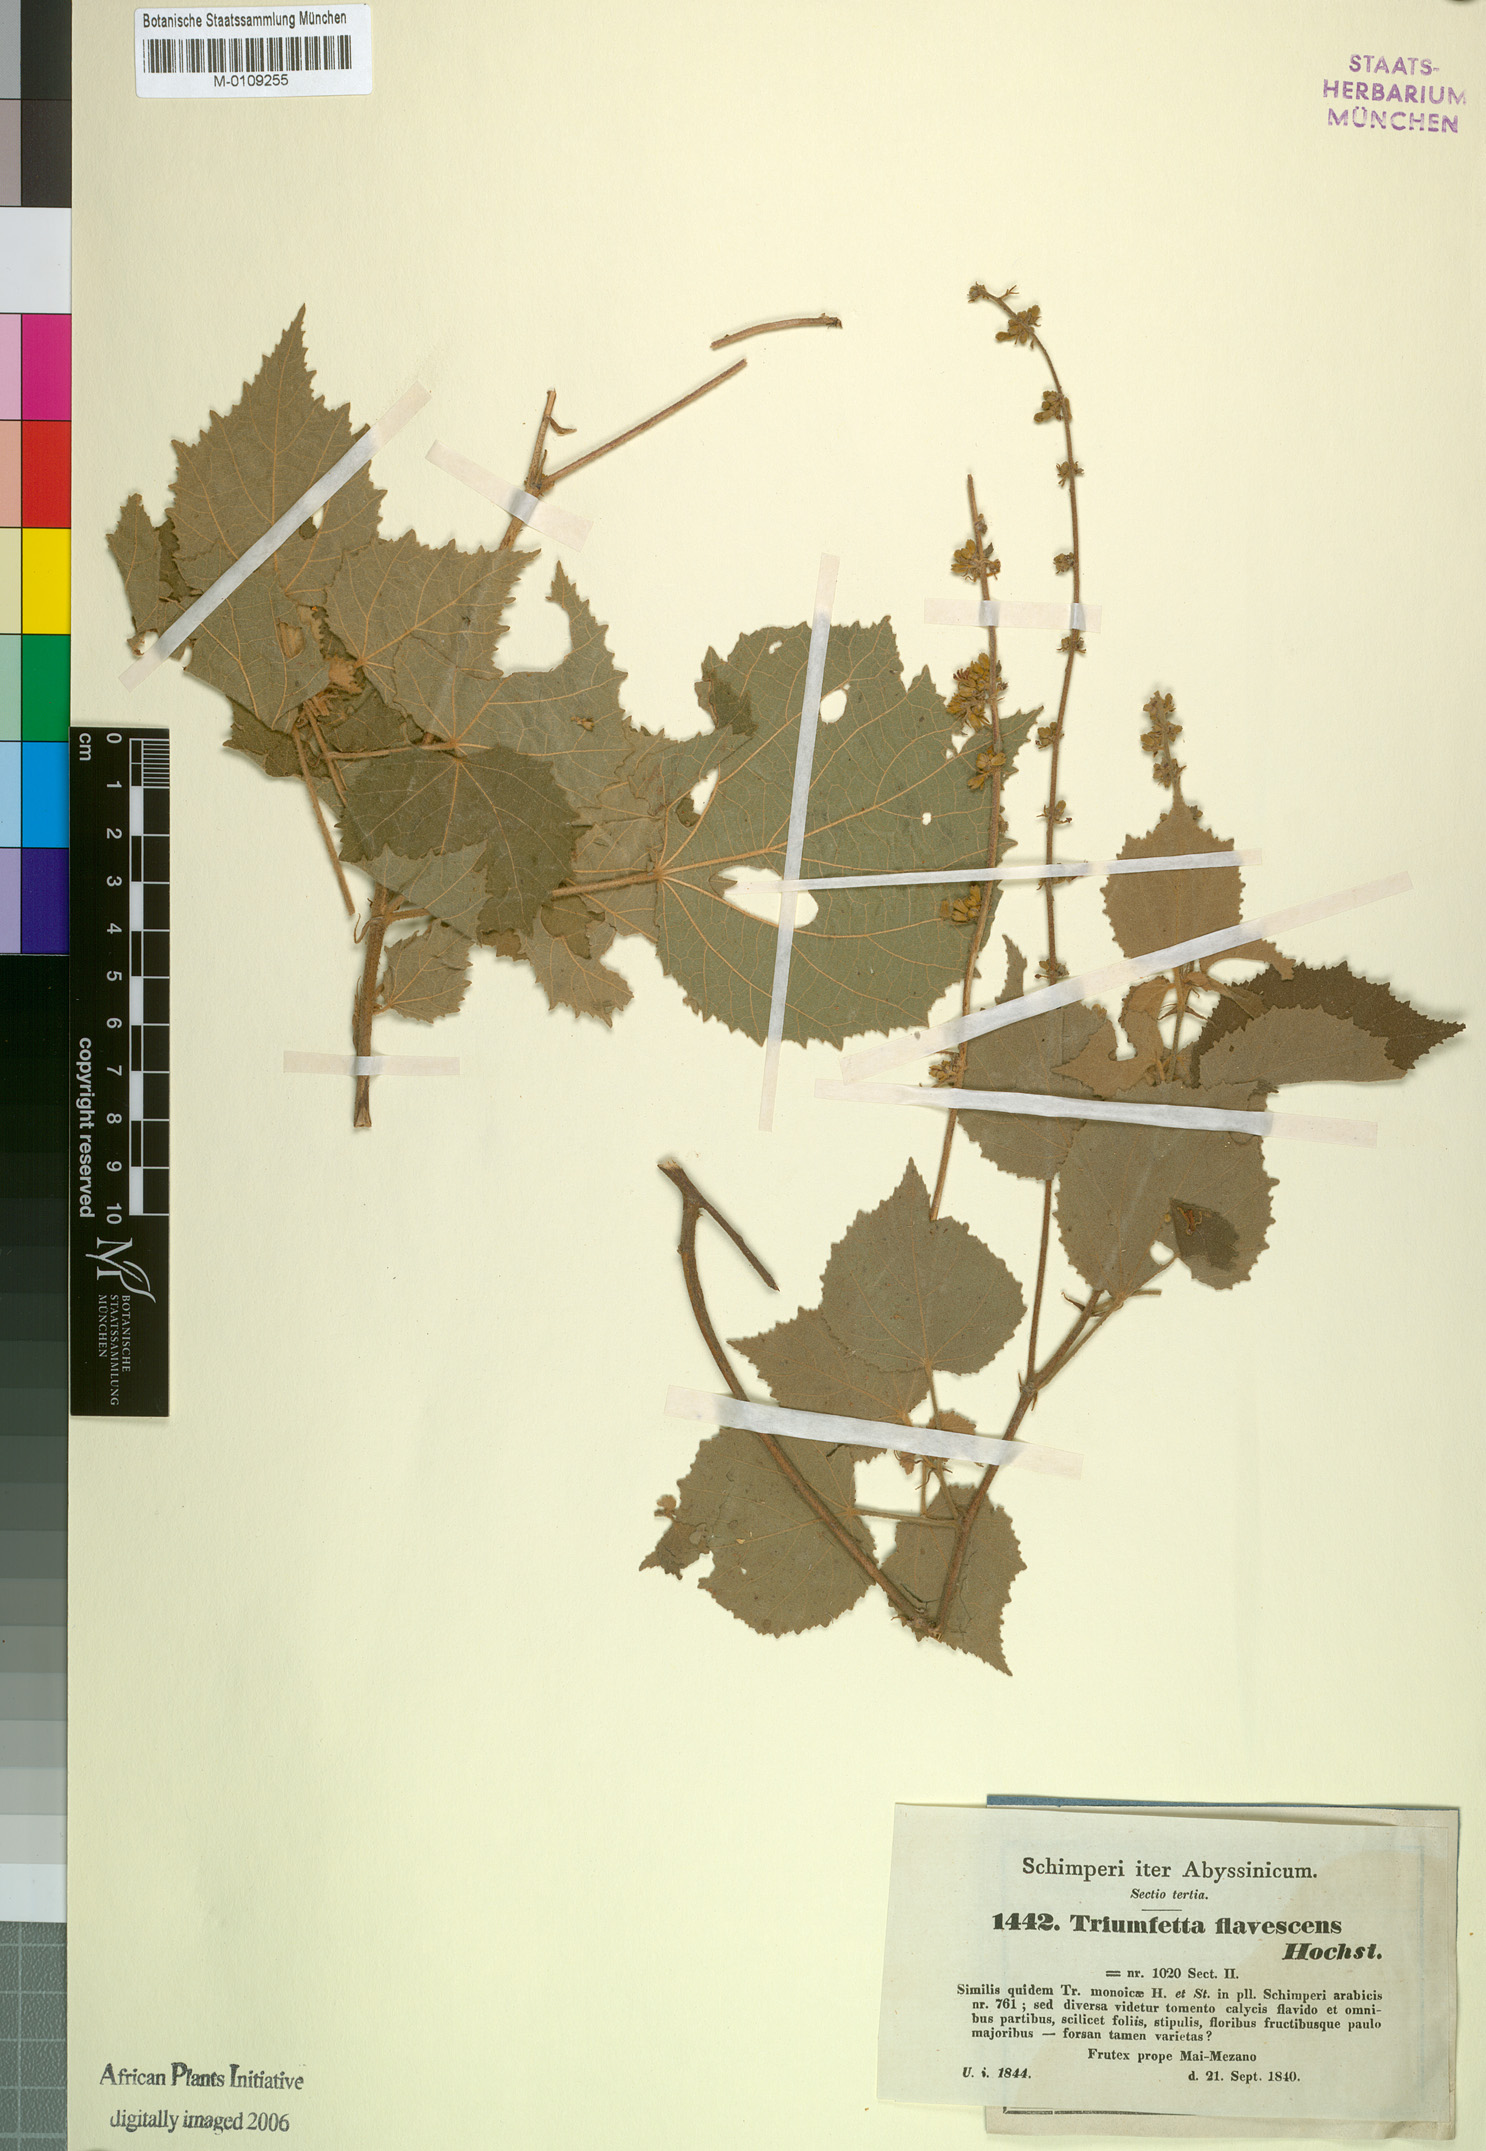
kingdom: Plantae
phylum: Tracheophyta
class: Magnoliopsida
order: Malvales
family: Malvaceae
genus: Triumfetta
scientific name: Triumfetta flavescens
